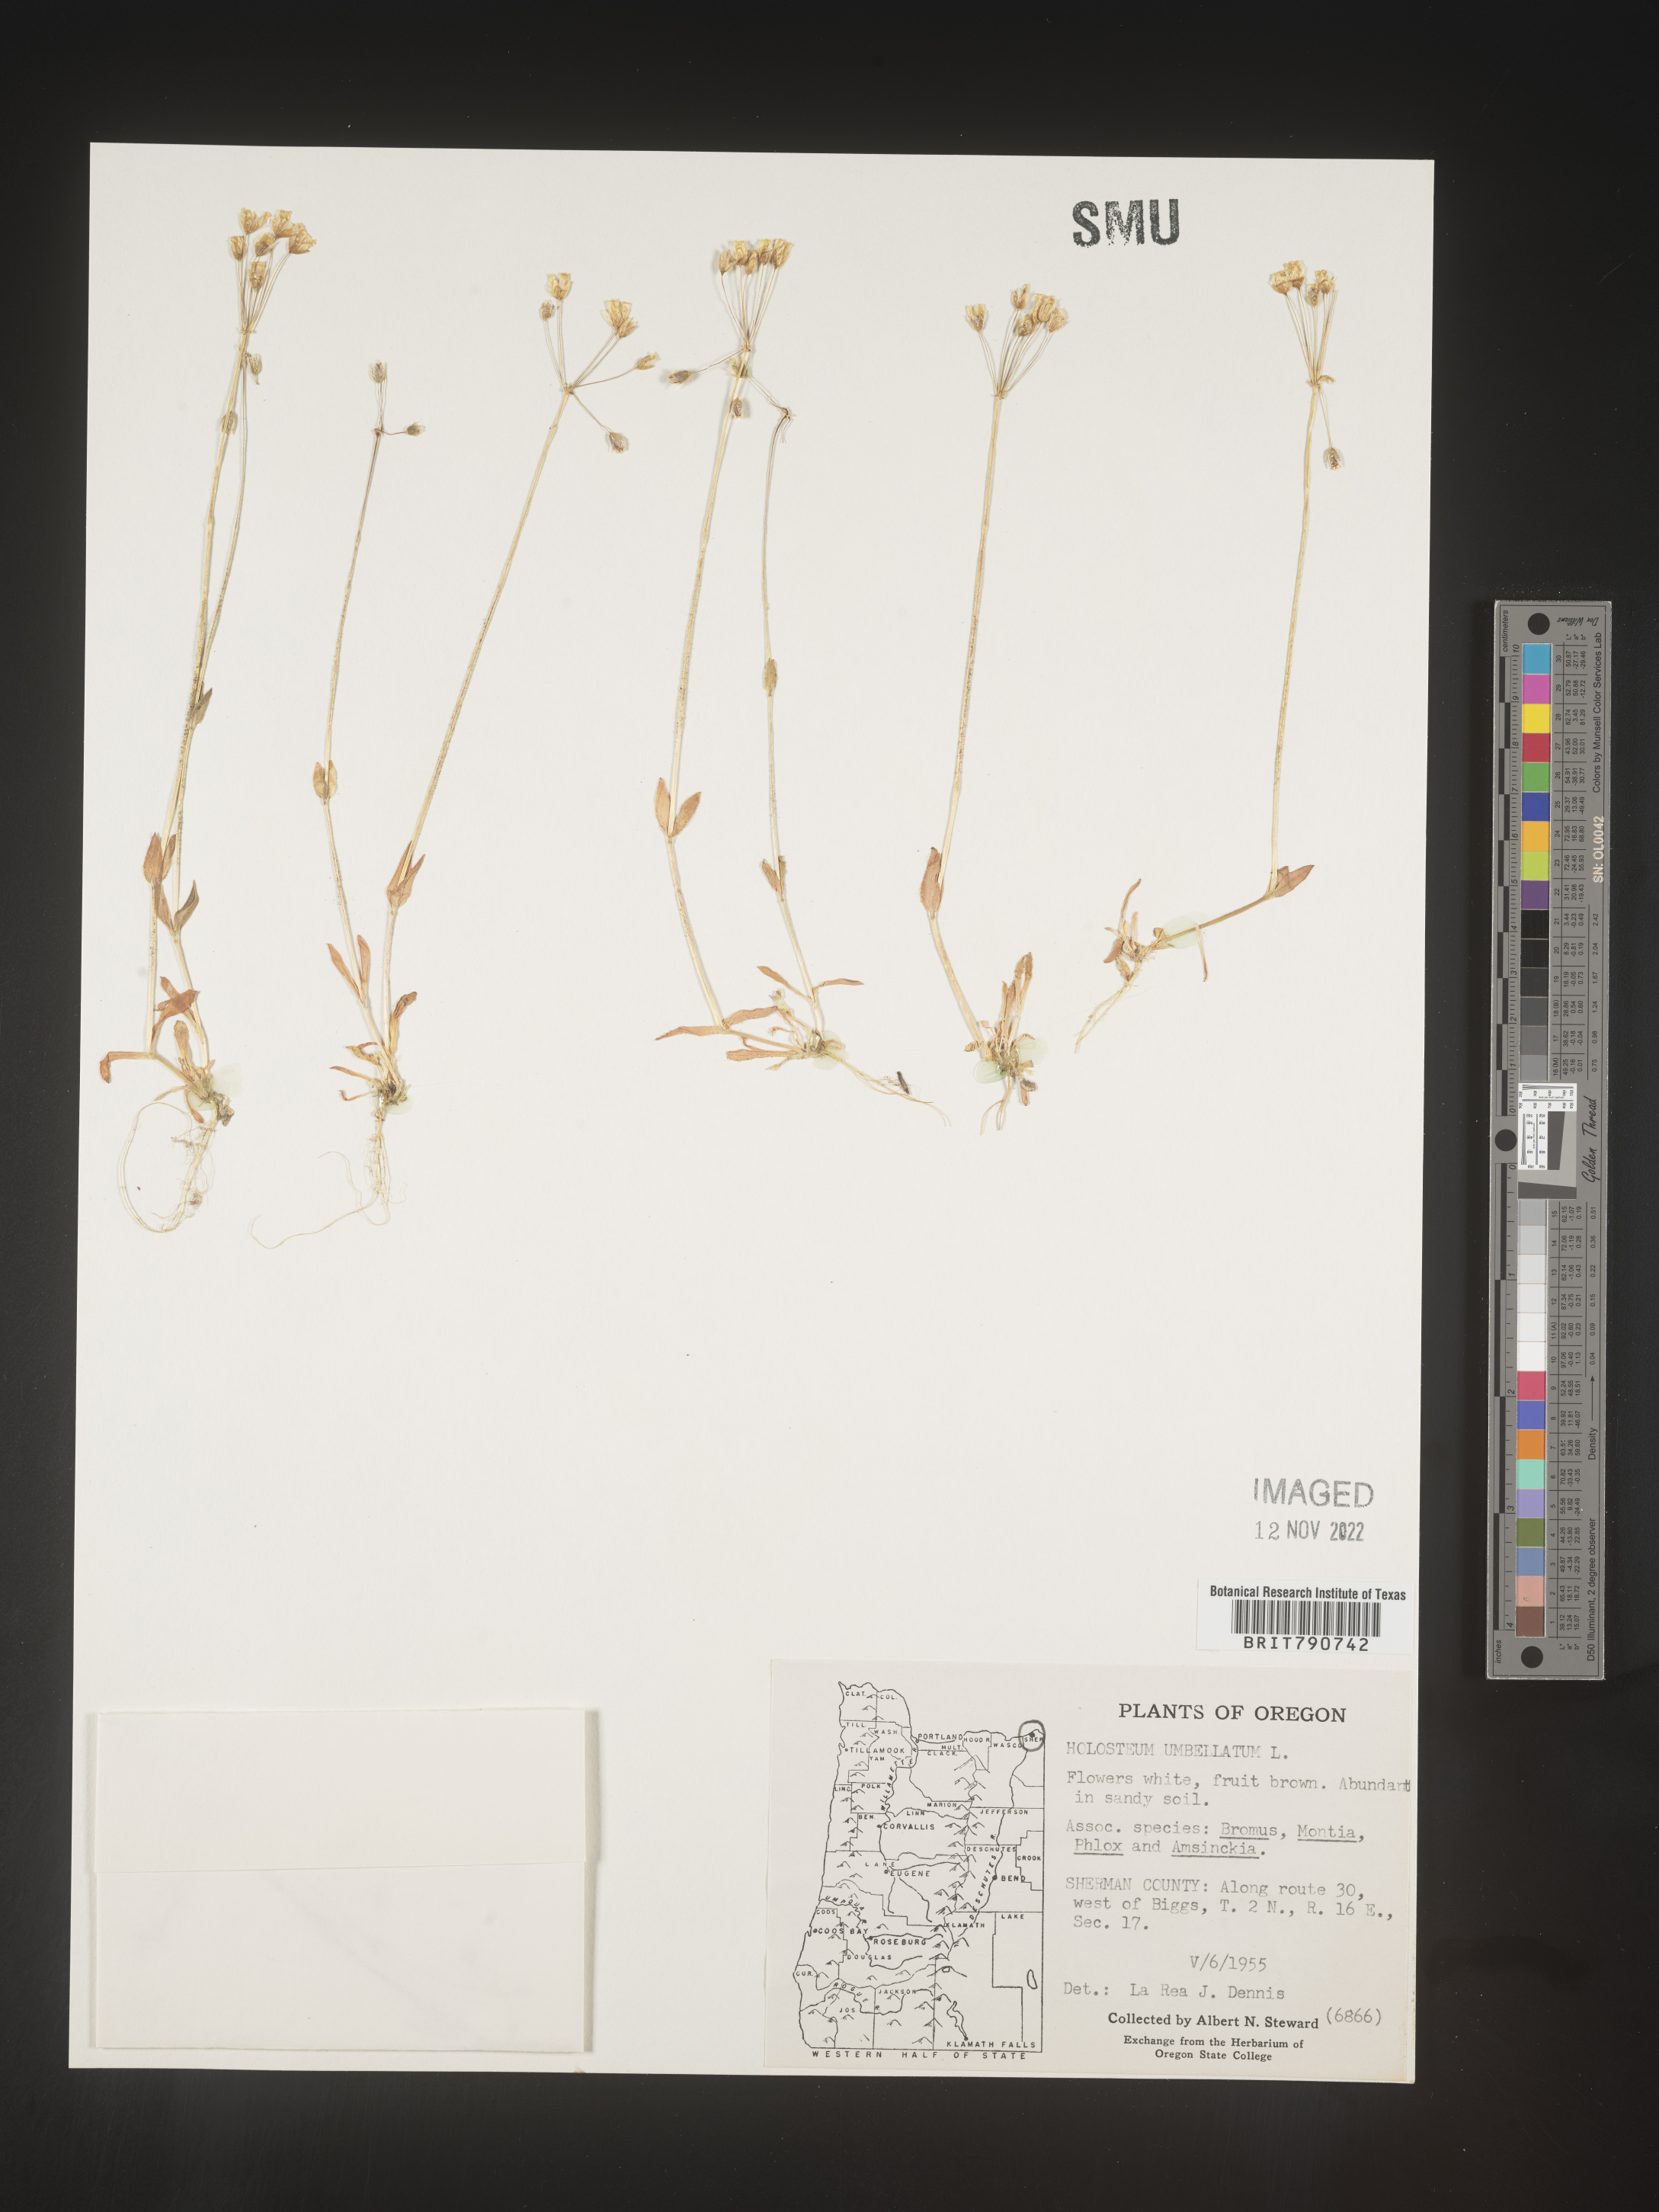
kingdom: Plantae
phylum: Tracheophyta
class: Magnoliopsida
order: Caryophyllales
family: Caryophyllaceae
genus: Holosteum
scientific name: Holosteum
